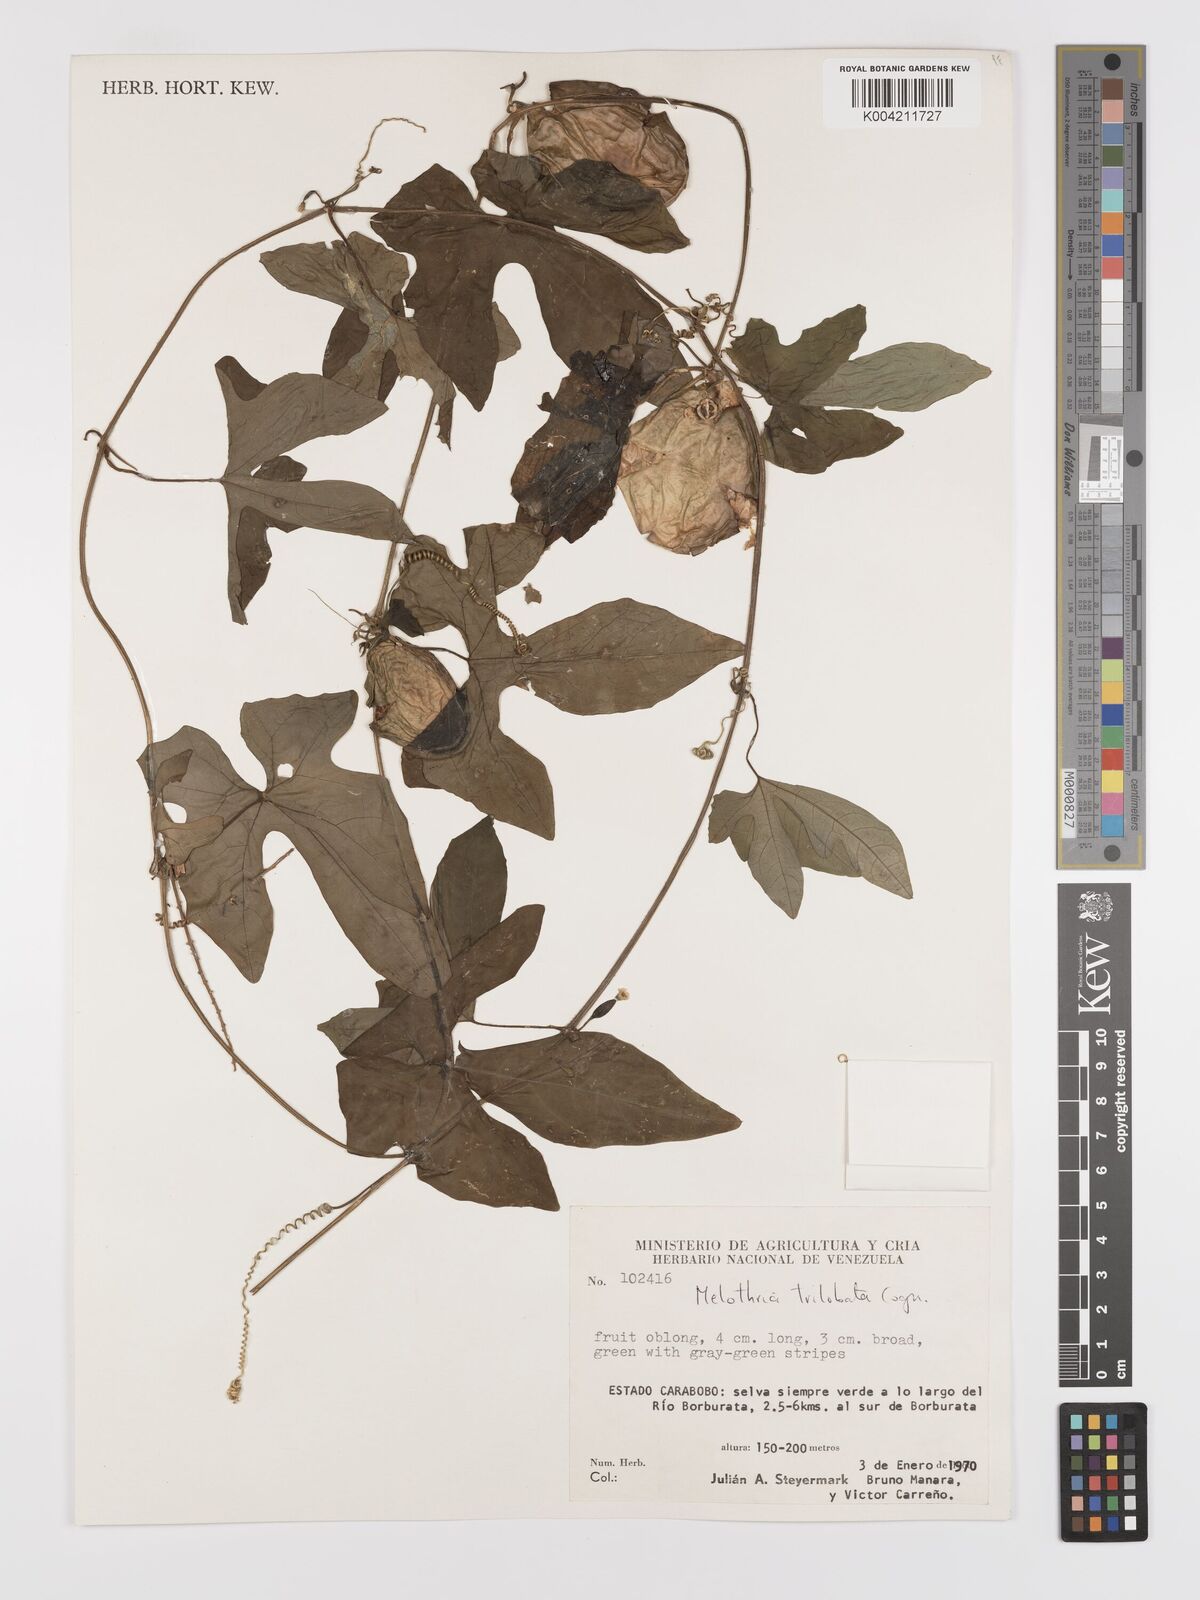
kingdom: Plantae
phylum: Tracheophyta
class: Magnoliopsida
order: Cucurbitales
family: Cucurbitaceae
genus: Melothria
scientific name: Melothria trilobata
